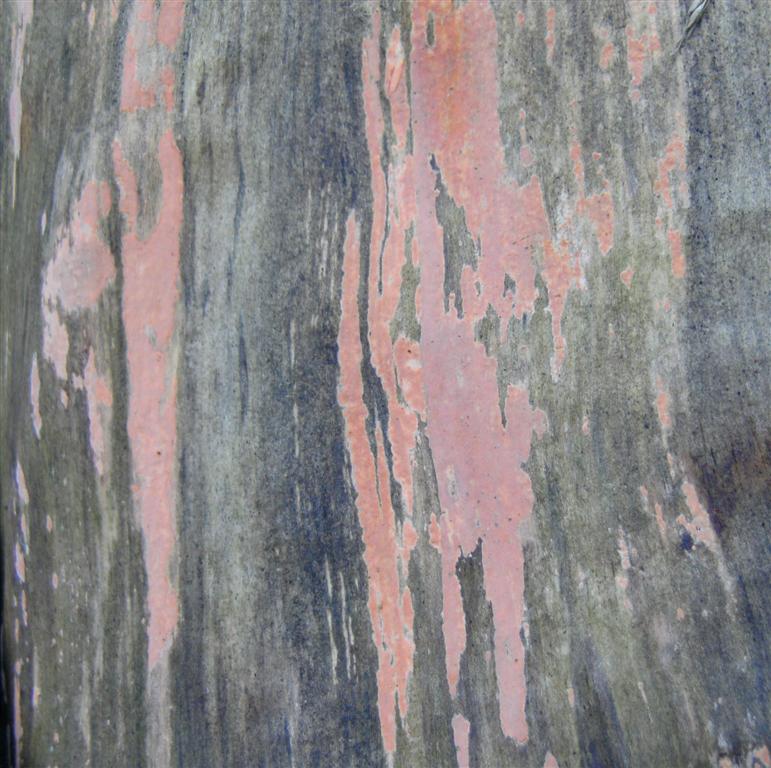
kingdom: Fungi
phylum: Basidiomycota
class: Agaricomycetes
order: Russulales
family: Peniophoraceae
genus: Peniophora
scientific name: Peniophora incarnata
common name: laksefarvet voksskind
